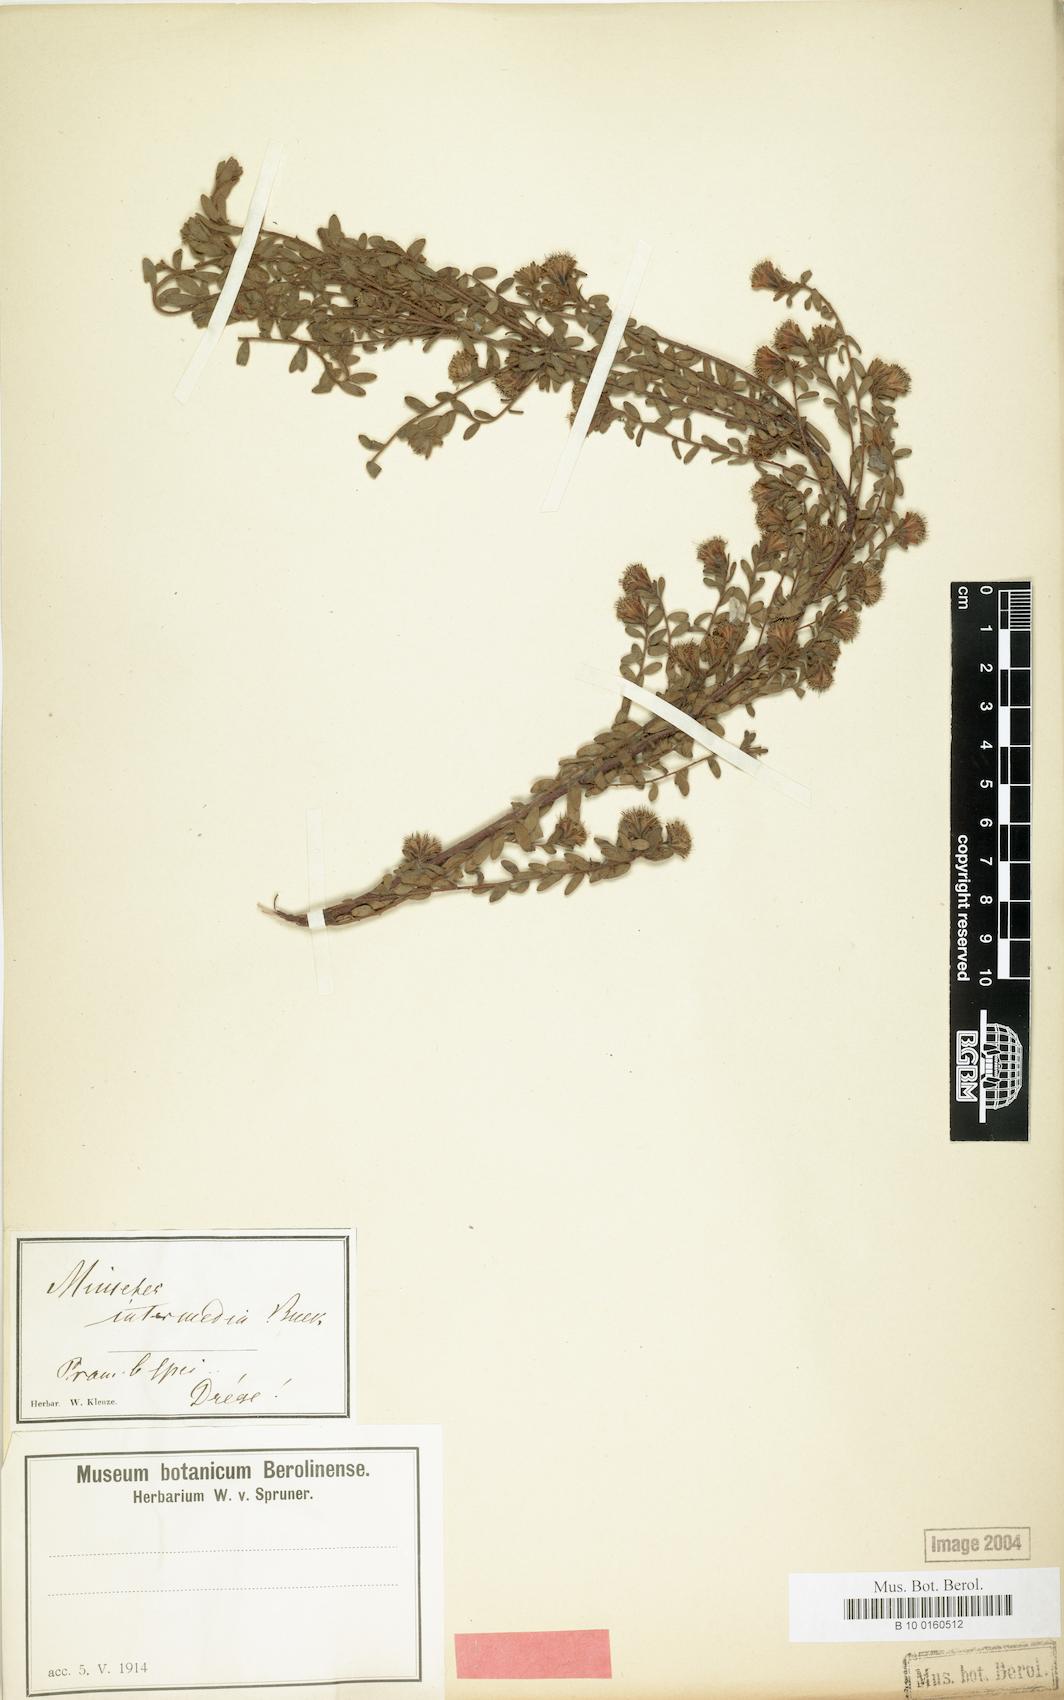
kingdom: Plantae
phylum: Tracheophyta
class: Magnoliopsida
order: Proteales
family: Proteaceae
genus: Diastella
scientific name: Diastella divaricata
